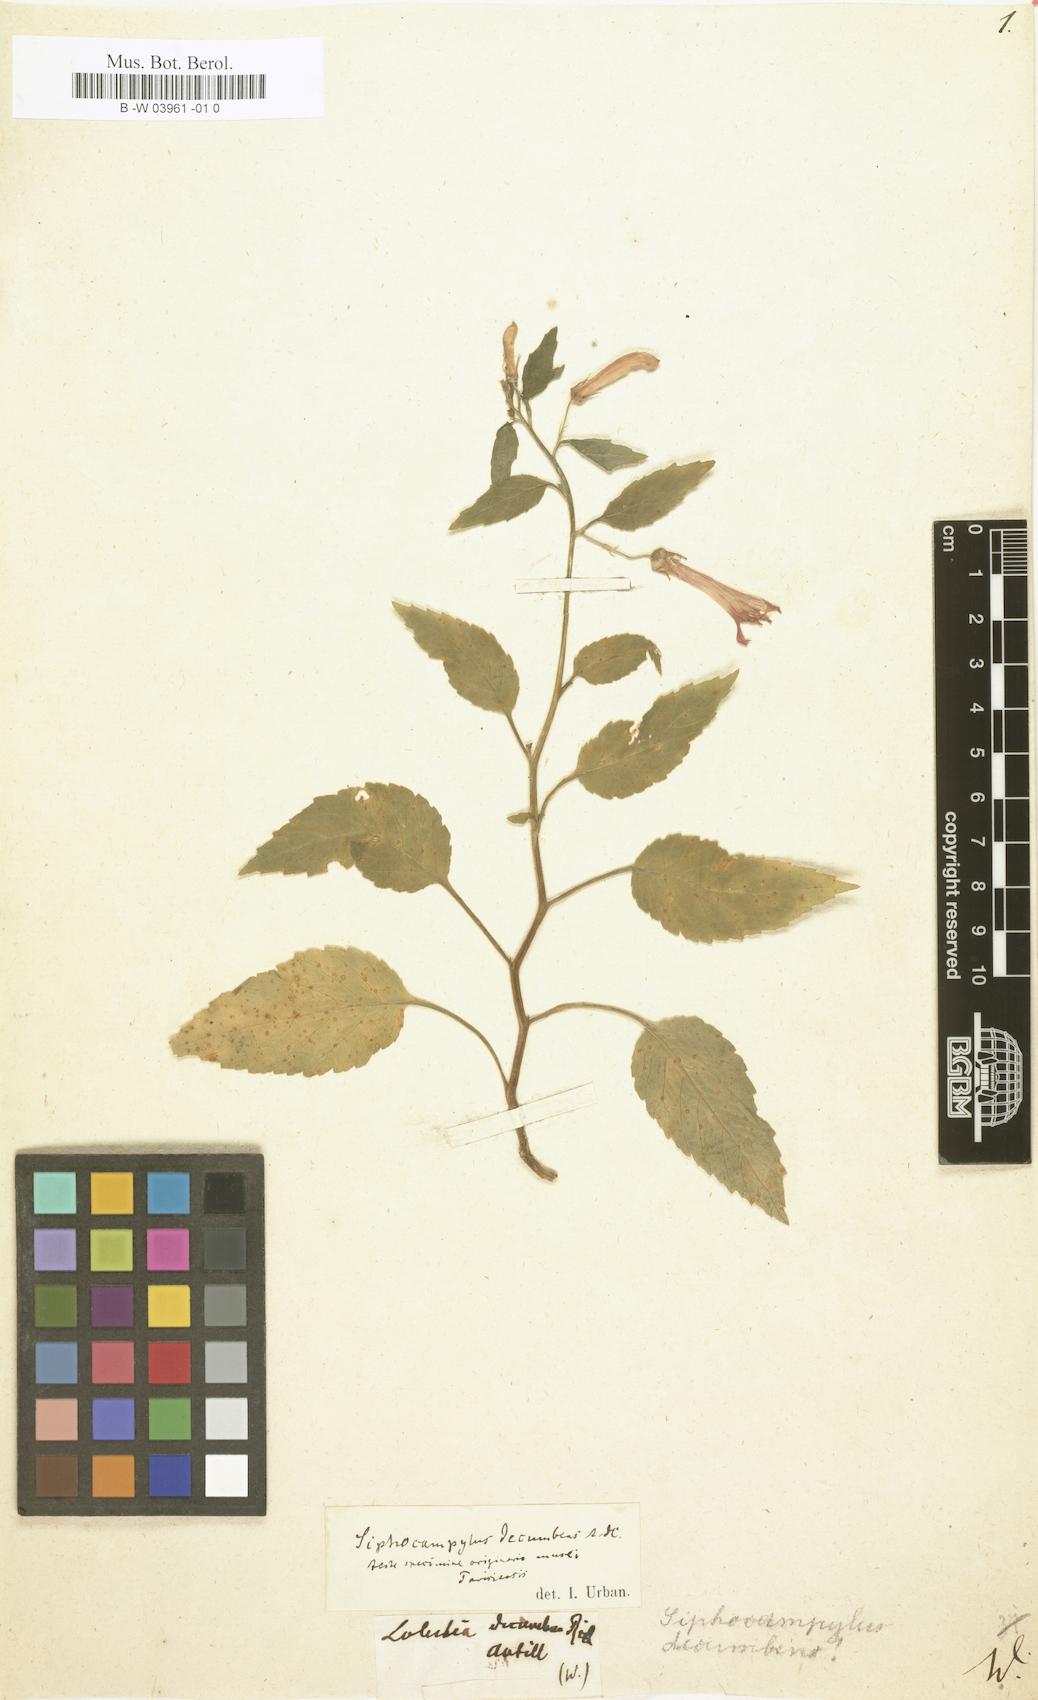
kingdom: Plantae
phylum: Tracheophyta
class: Magnoliopsida
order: Asterales
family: Campanulaceae
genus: Siphocampylus
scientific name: Siphocampylus decumbens
